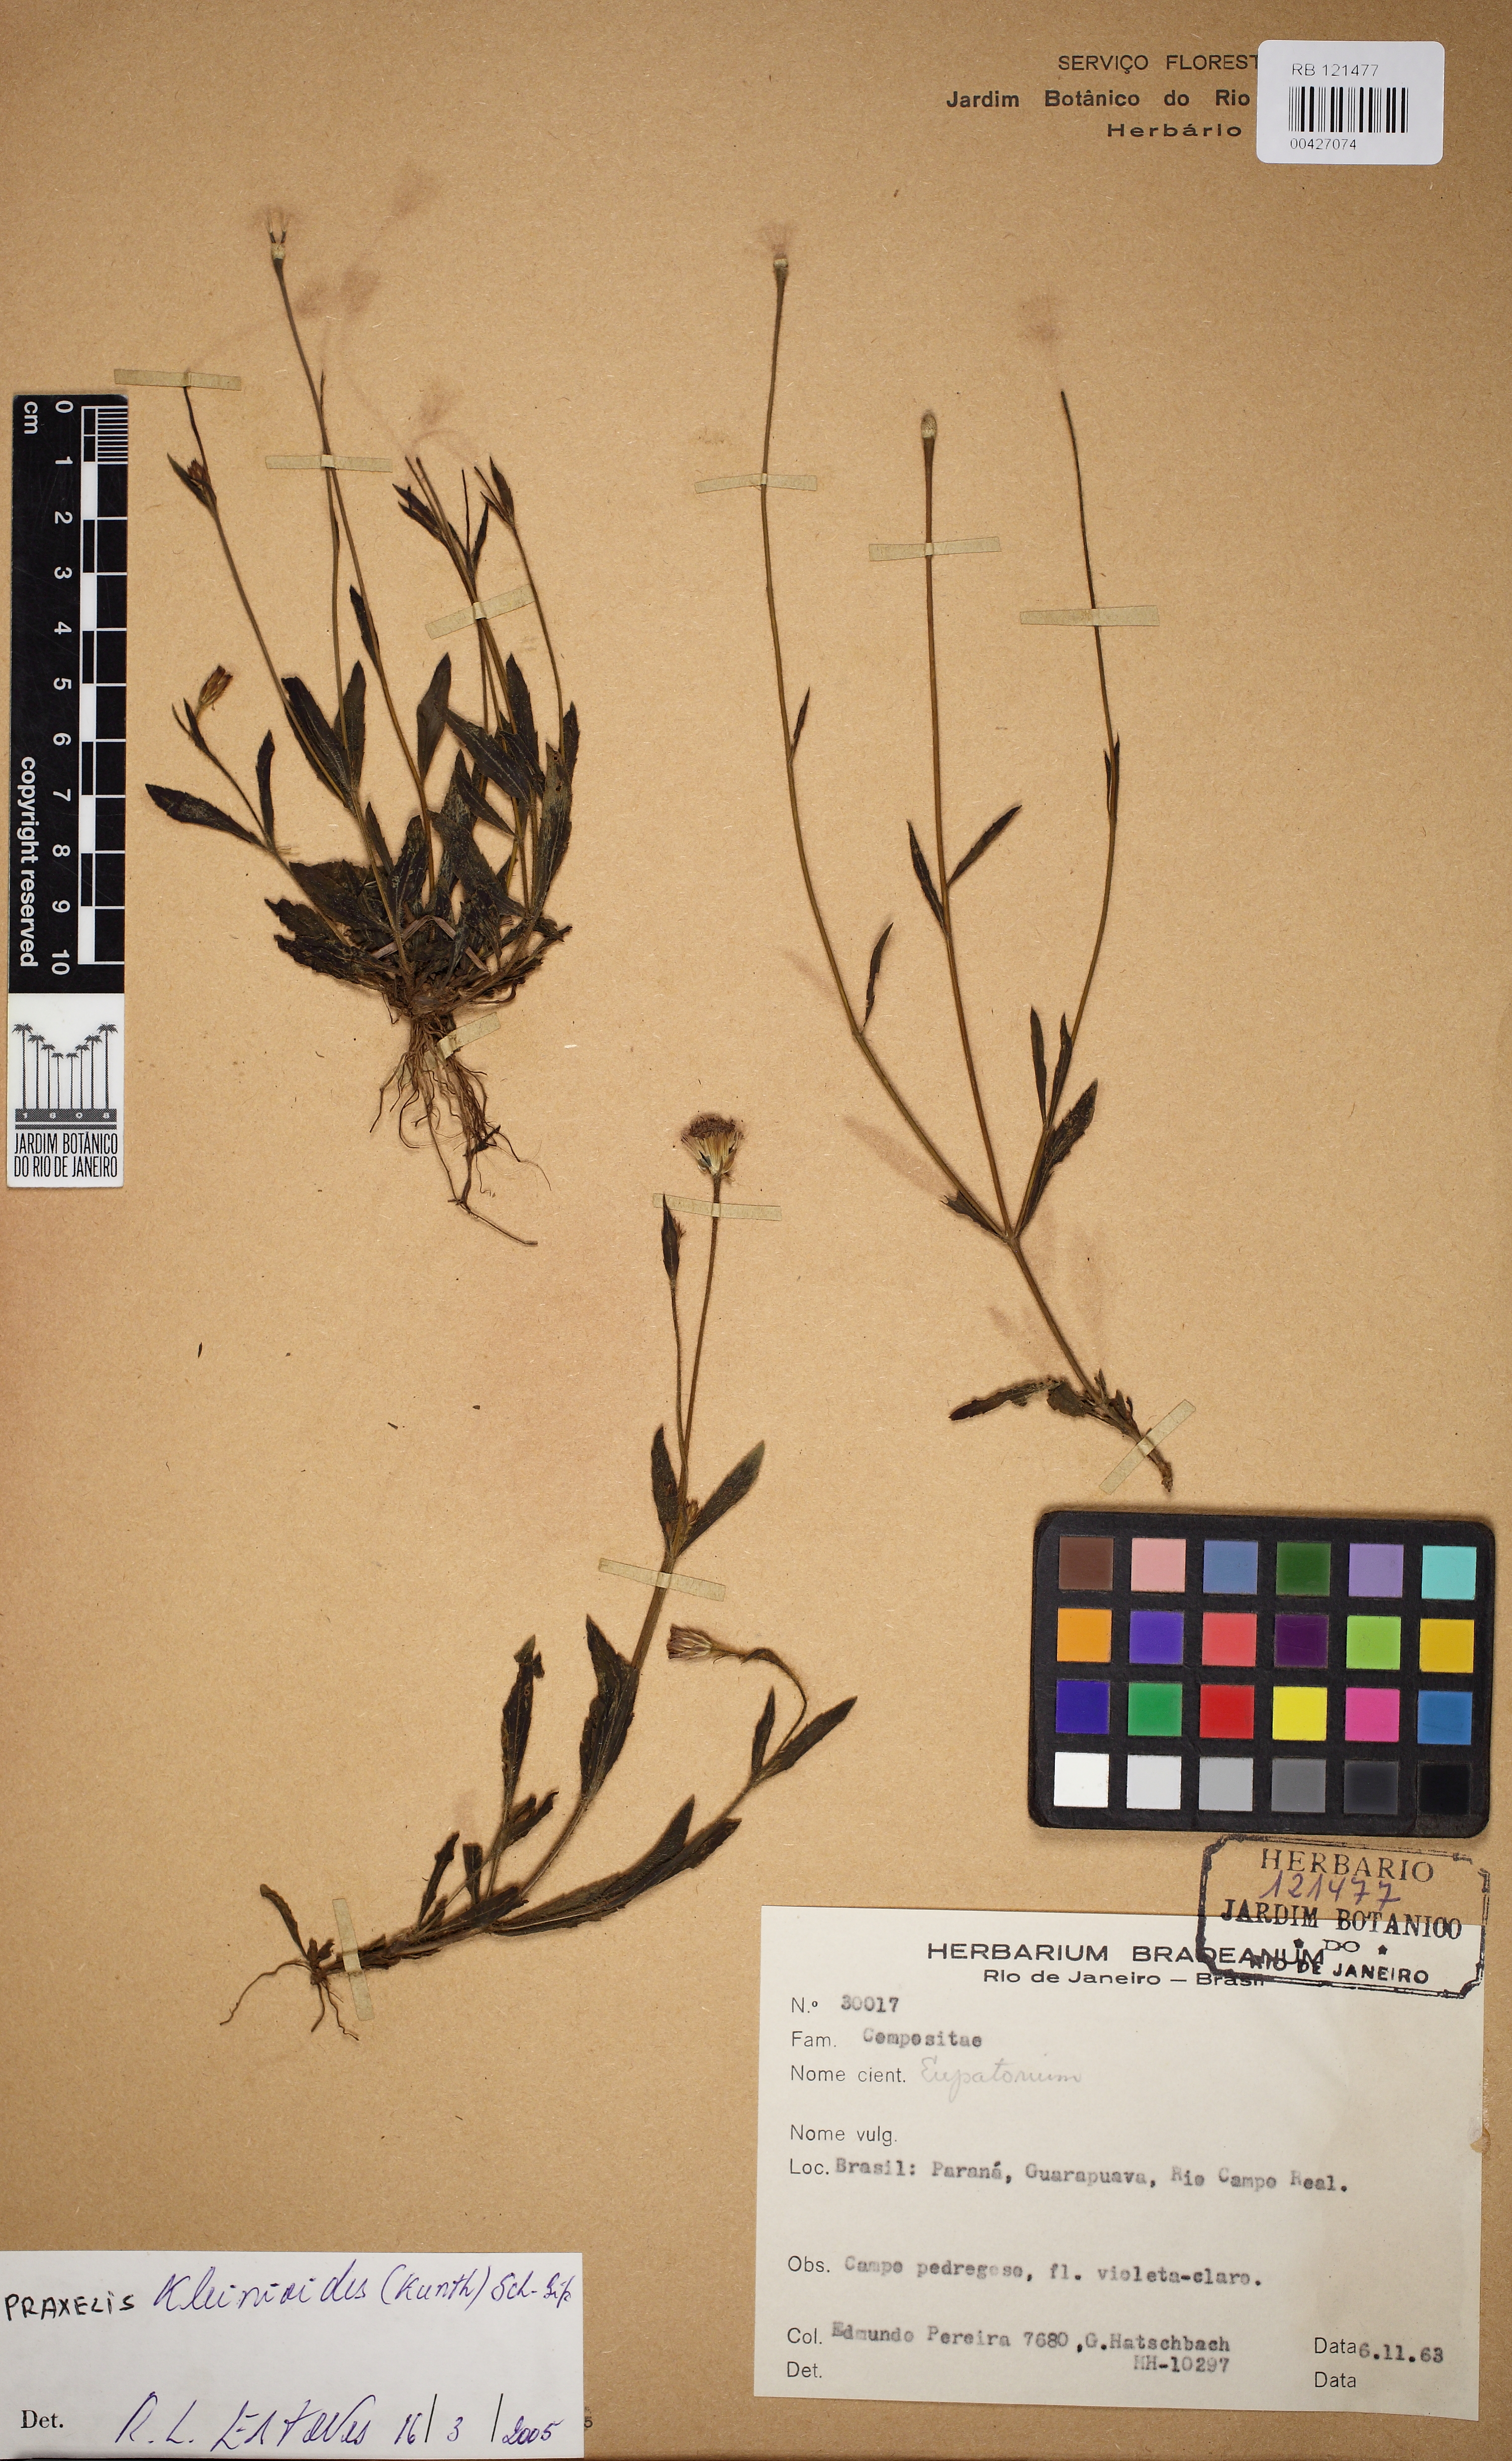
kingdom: Plantae
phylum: Tracheophyta
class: Magnoliopsida
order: Asterales
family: Asteraceae
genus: Praxelis
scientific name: Praxelis kleinioides
